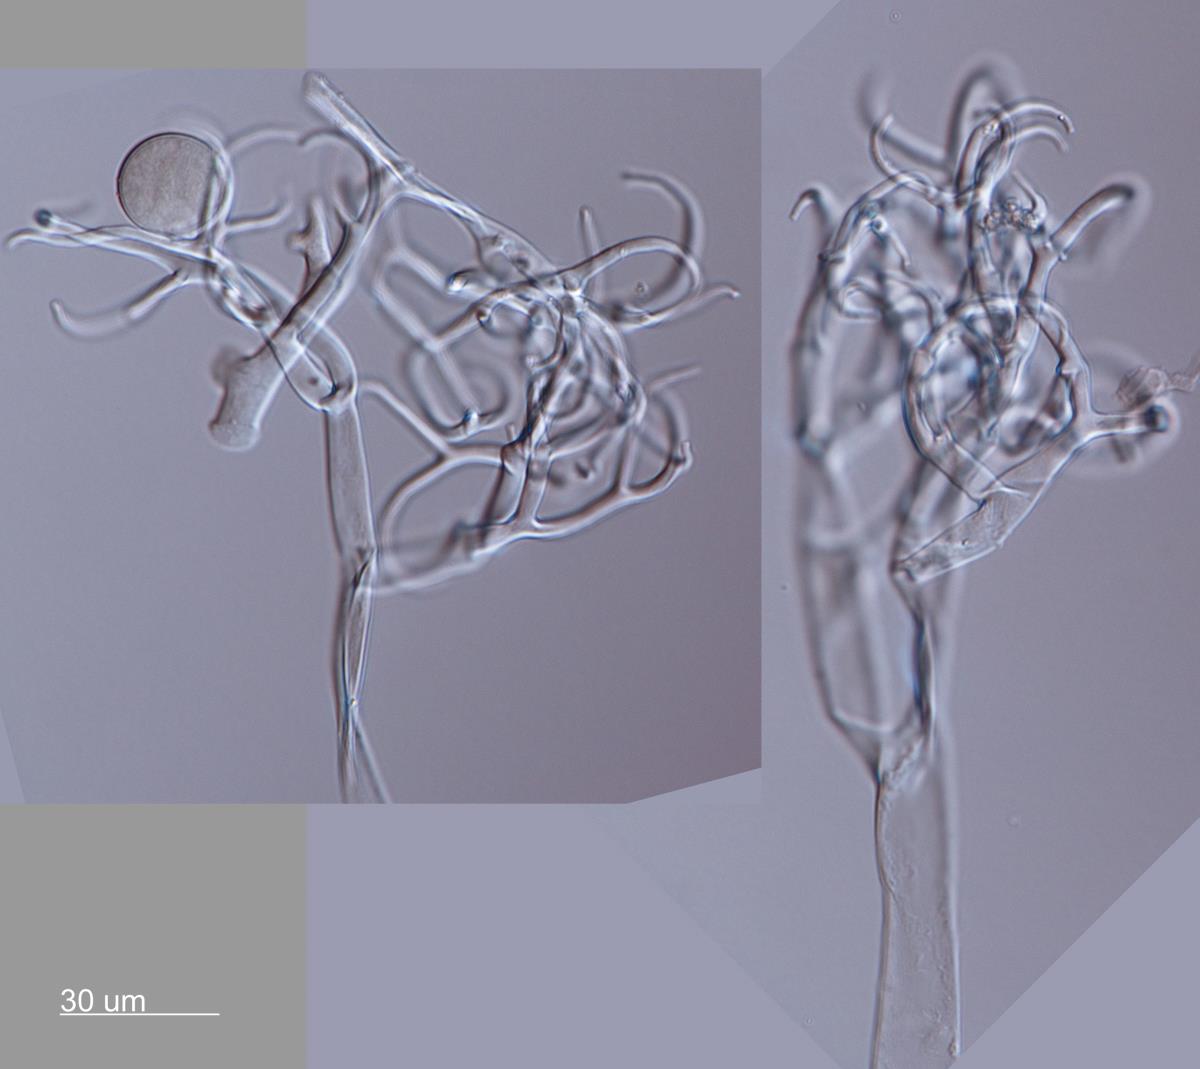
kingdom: Chromista
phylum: Oomycota
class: Peronosporea
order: Peronosporales
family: Peronosporaceae
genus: Hyaloperonospora
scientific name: Hyaloperonospora parasitica
